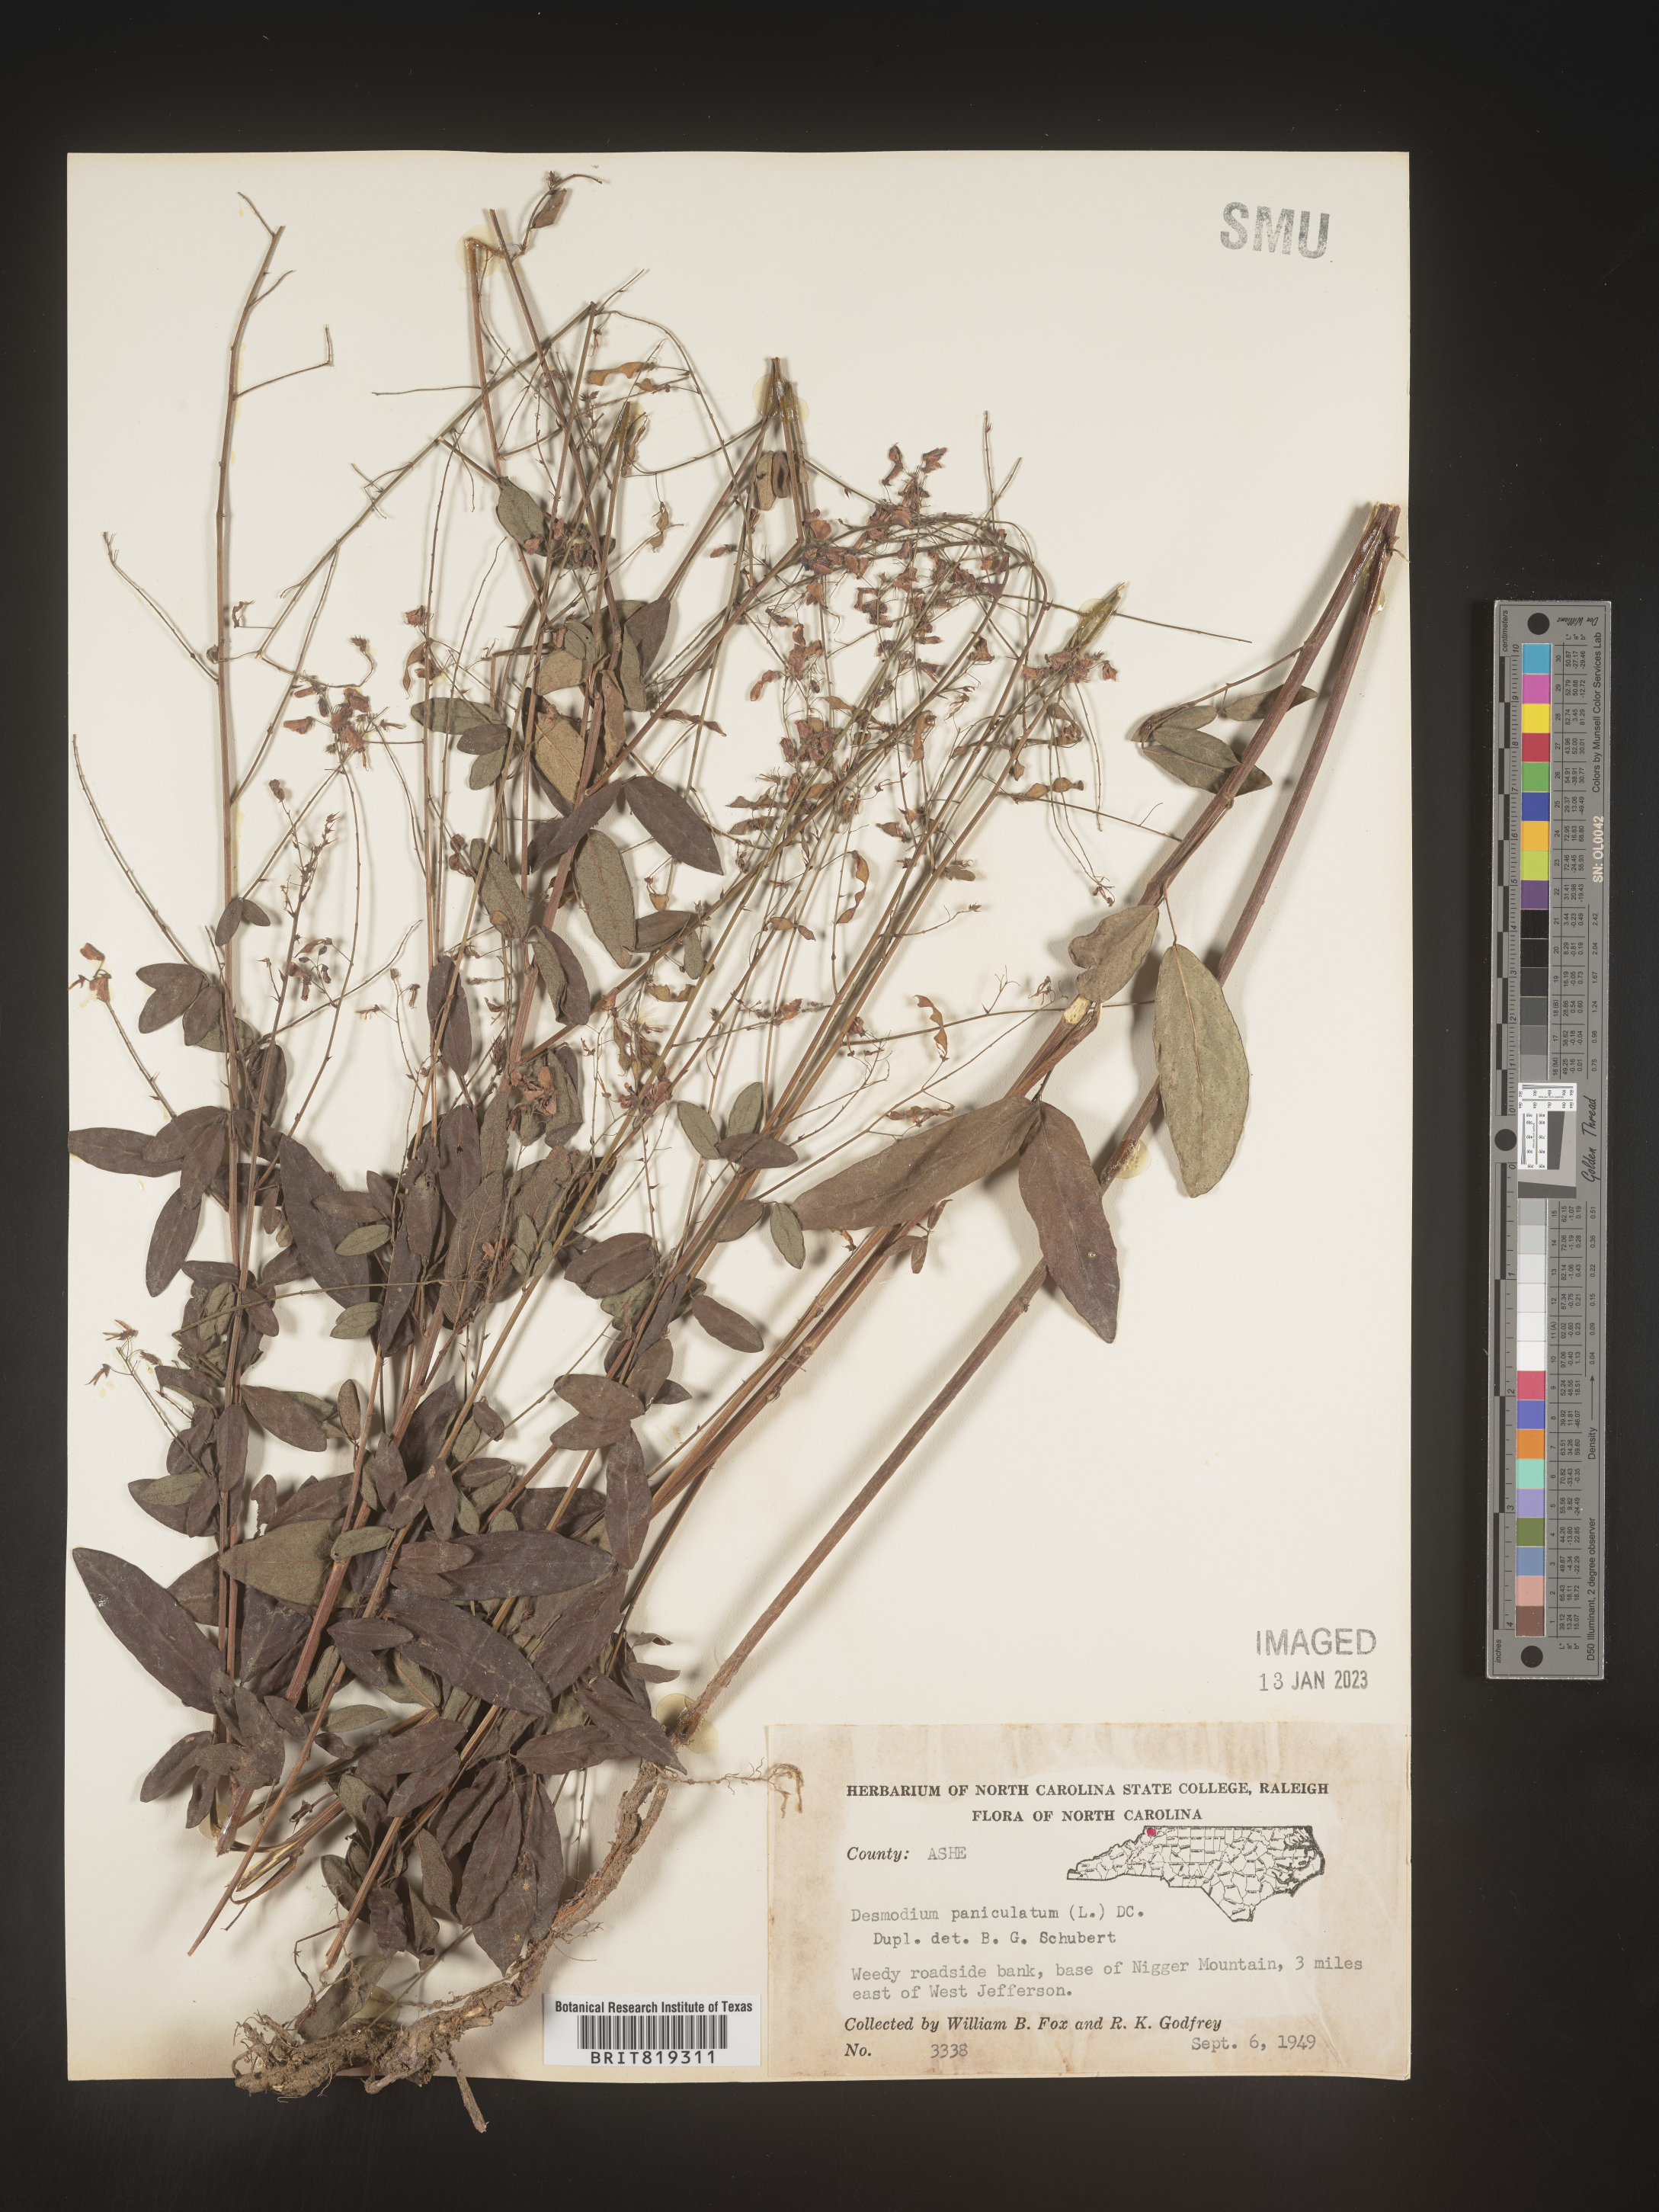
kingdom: Plantae
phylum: Tracheophyta
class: Magnoliopsida
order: Fabales
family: Fabaceae
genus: Desmodium
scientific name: Desmodium paniculatum
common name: Panicled tick-clover
